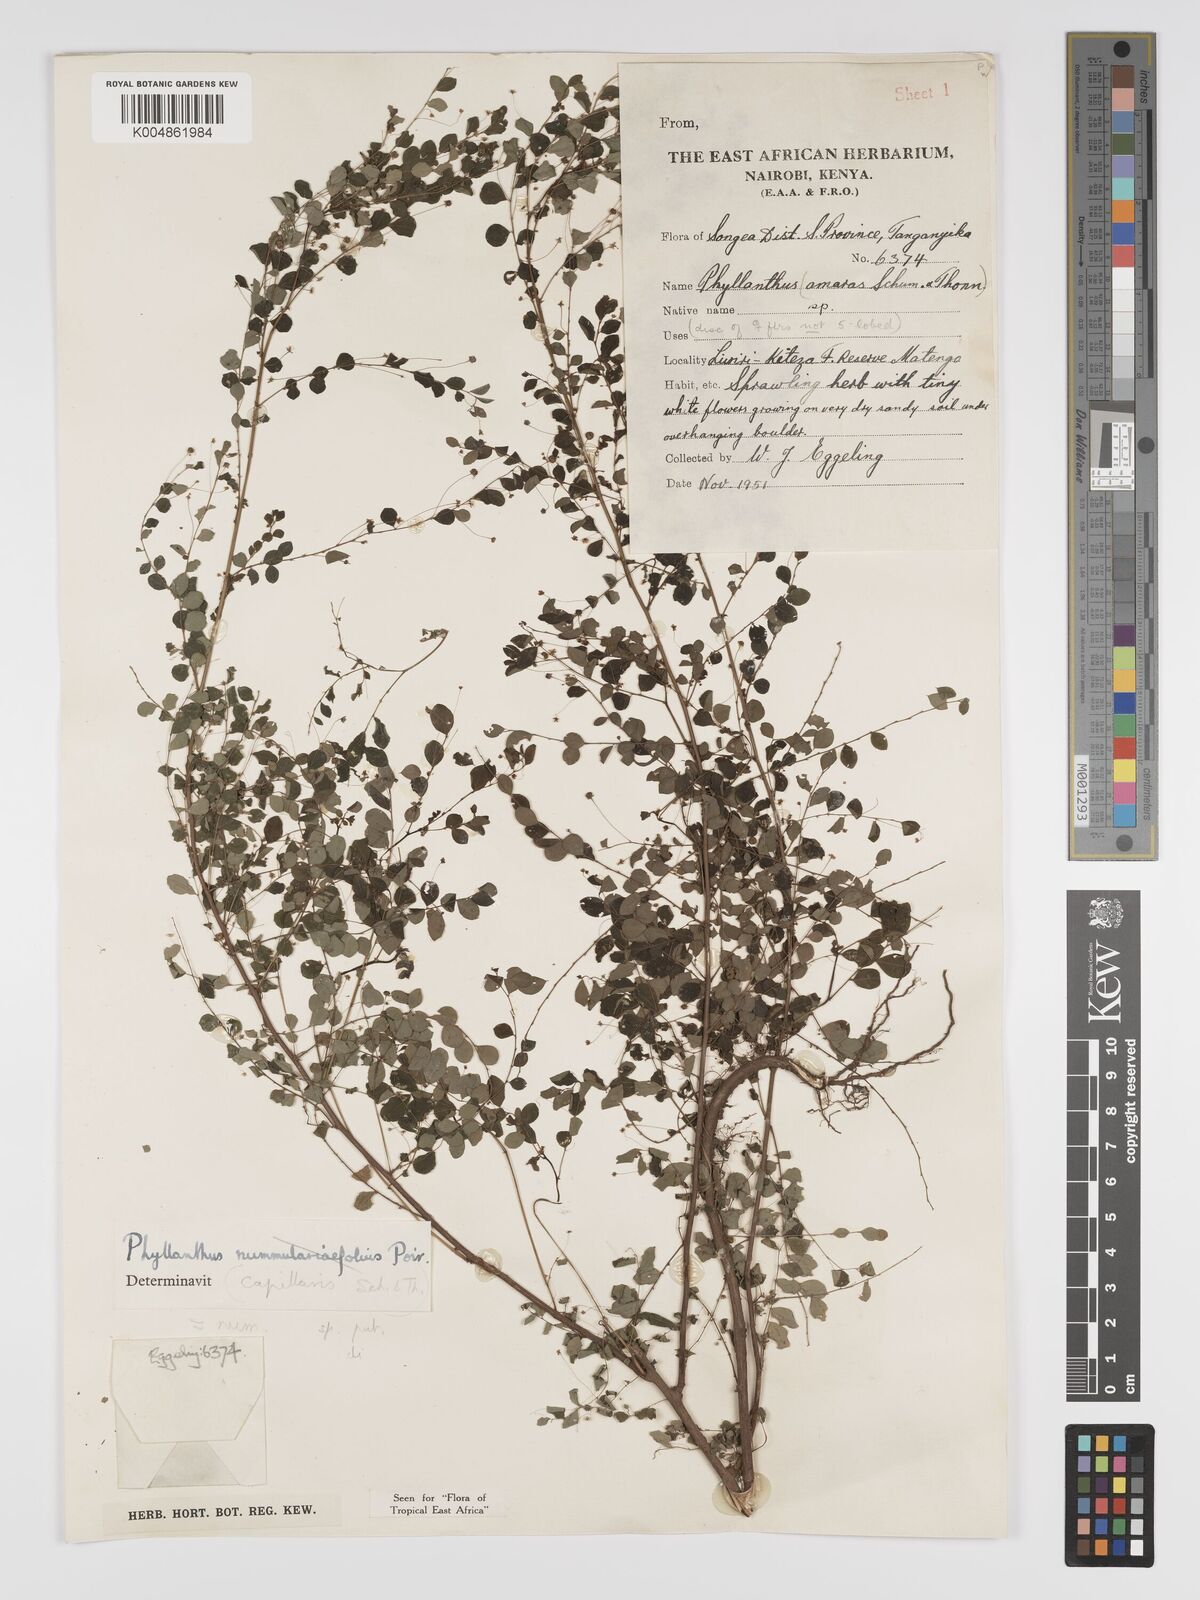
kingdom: Plantae
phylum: Tracheophyta
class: Magnoliopsida
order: Malpighiales
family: Phyllanthaceae
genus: Phyllanthus
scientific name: Phyllanthus nummulariifolius
